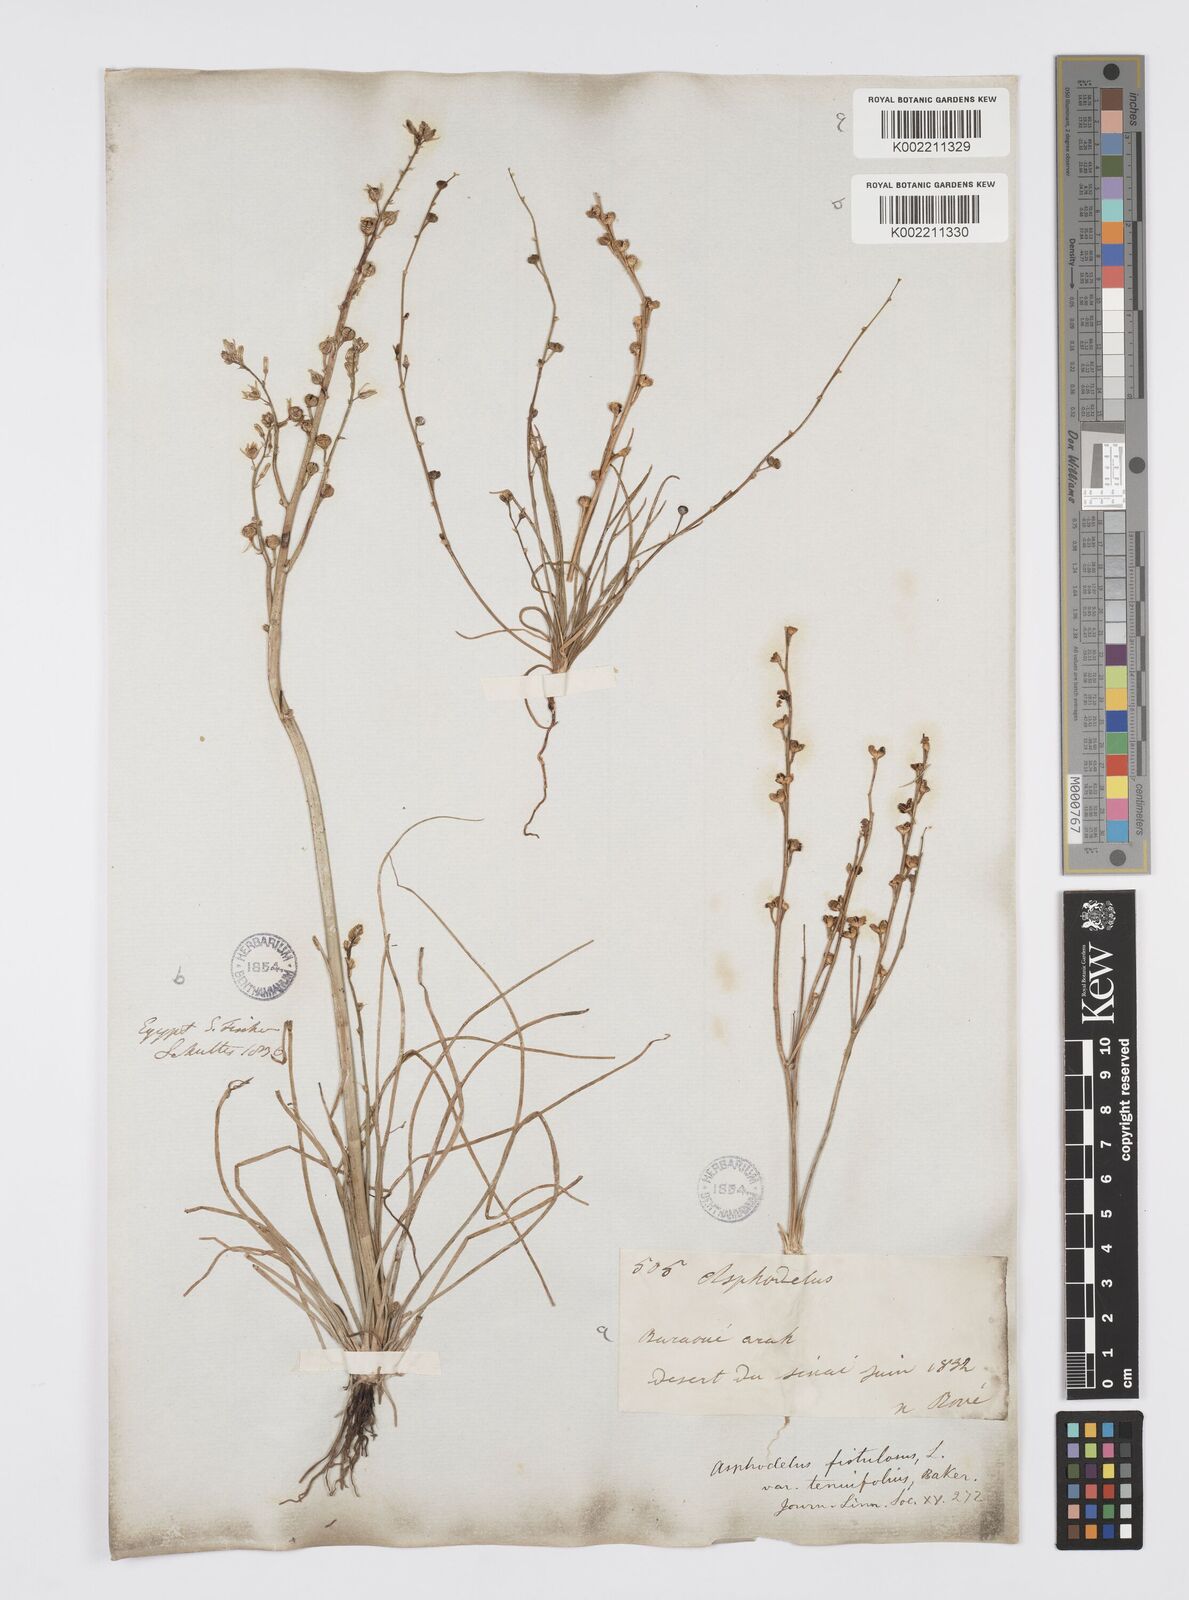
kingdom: Plantae
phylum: Tracheophyta
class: Liliopsida
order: Asparagales
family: Asphodelaceae
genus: Asphodelus
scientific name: Asphodelus tenuifolius
